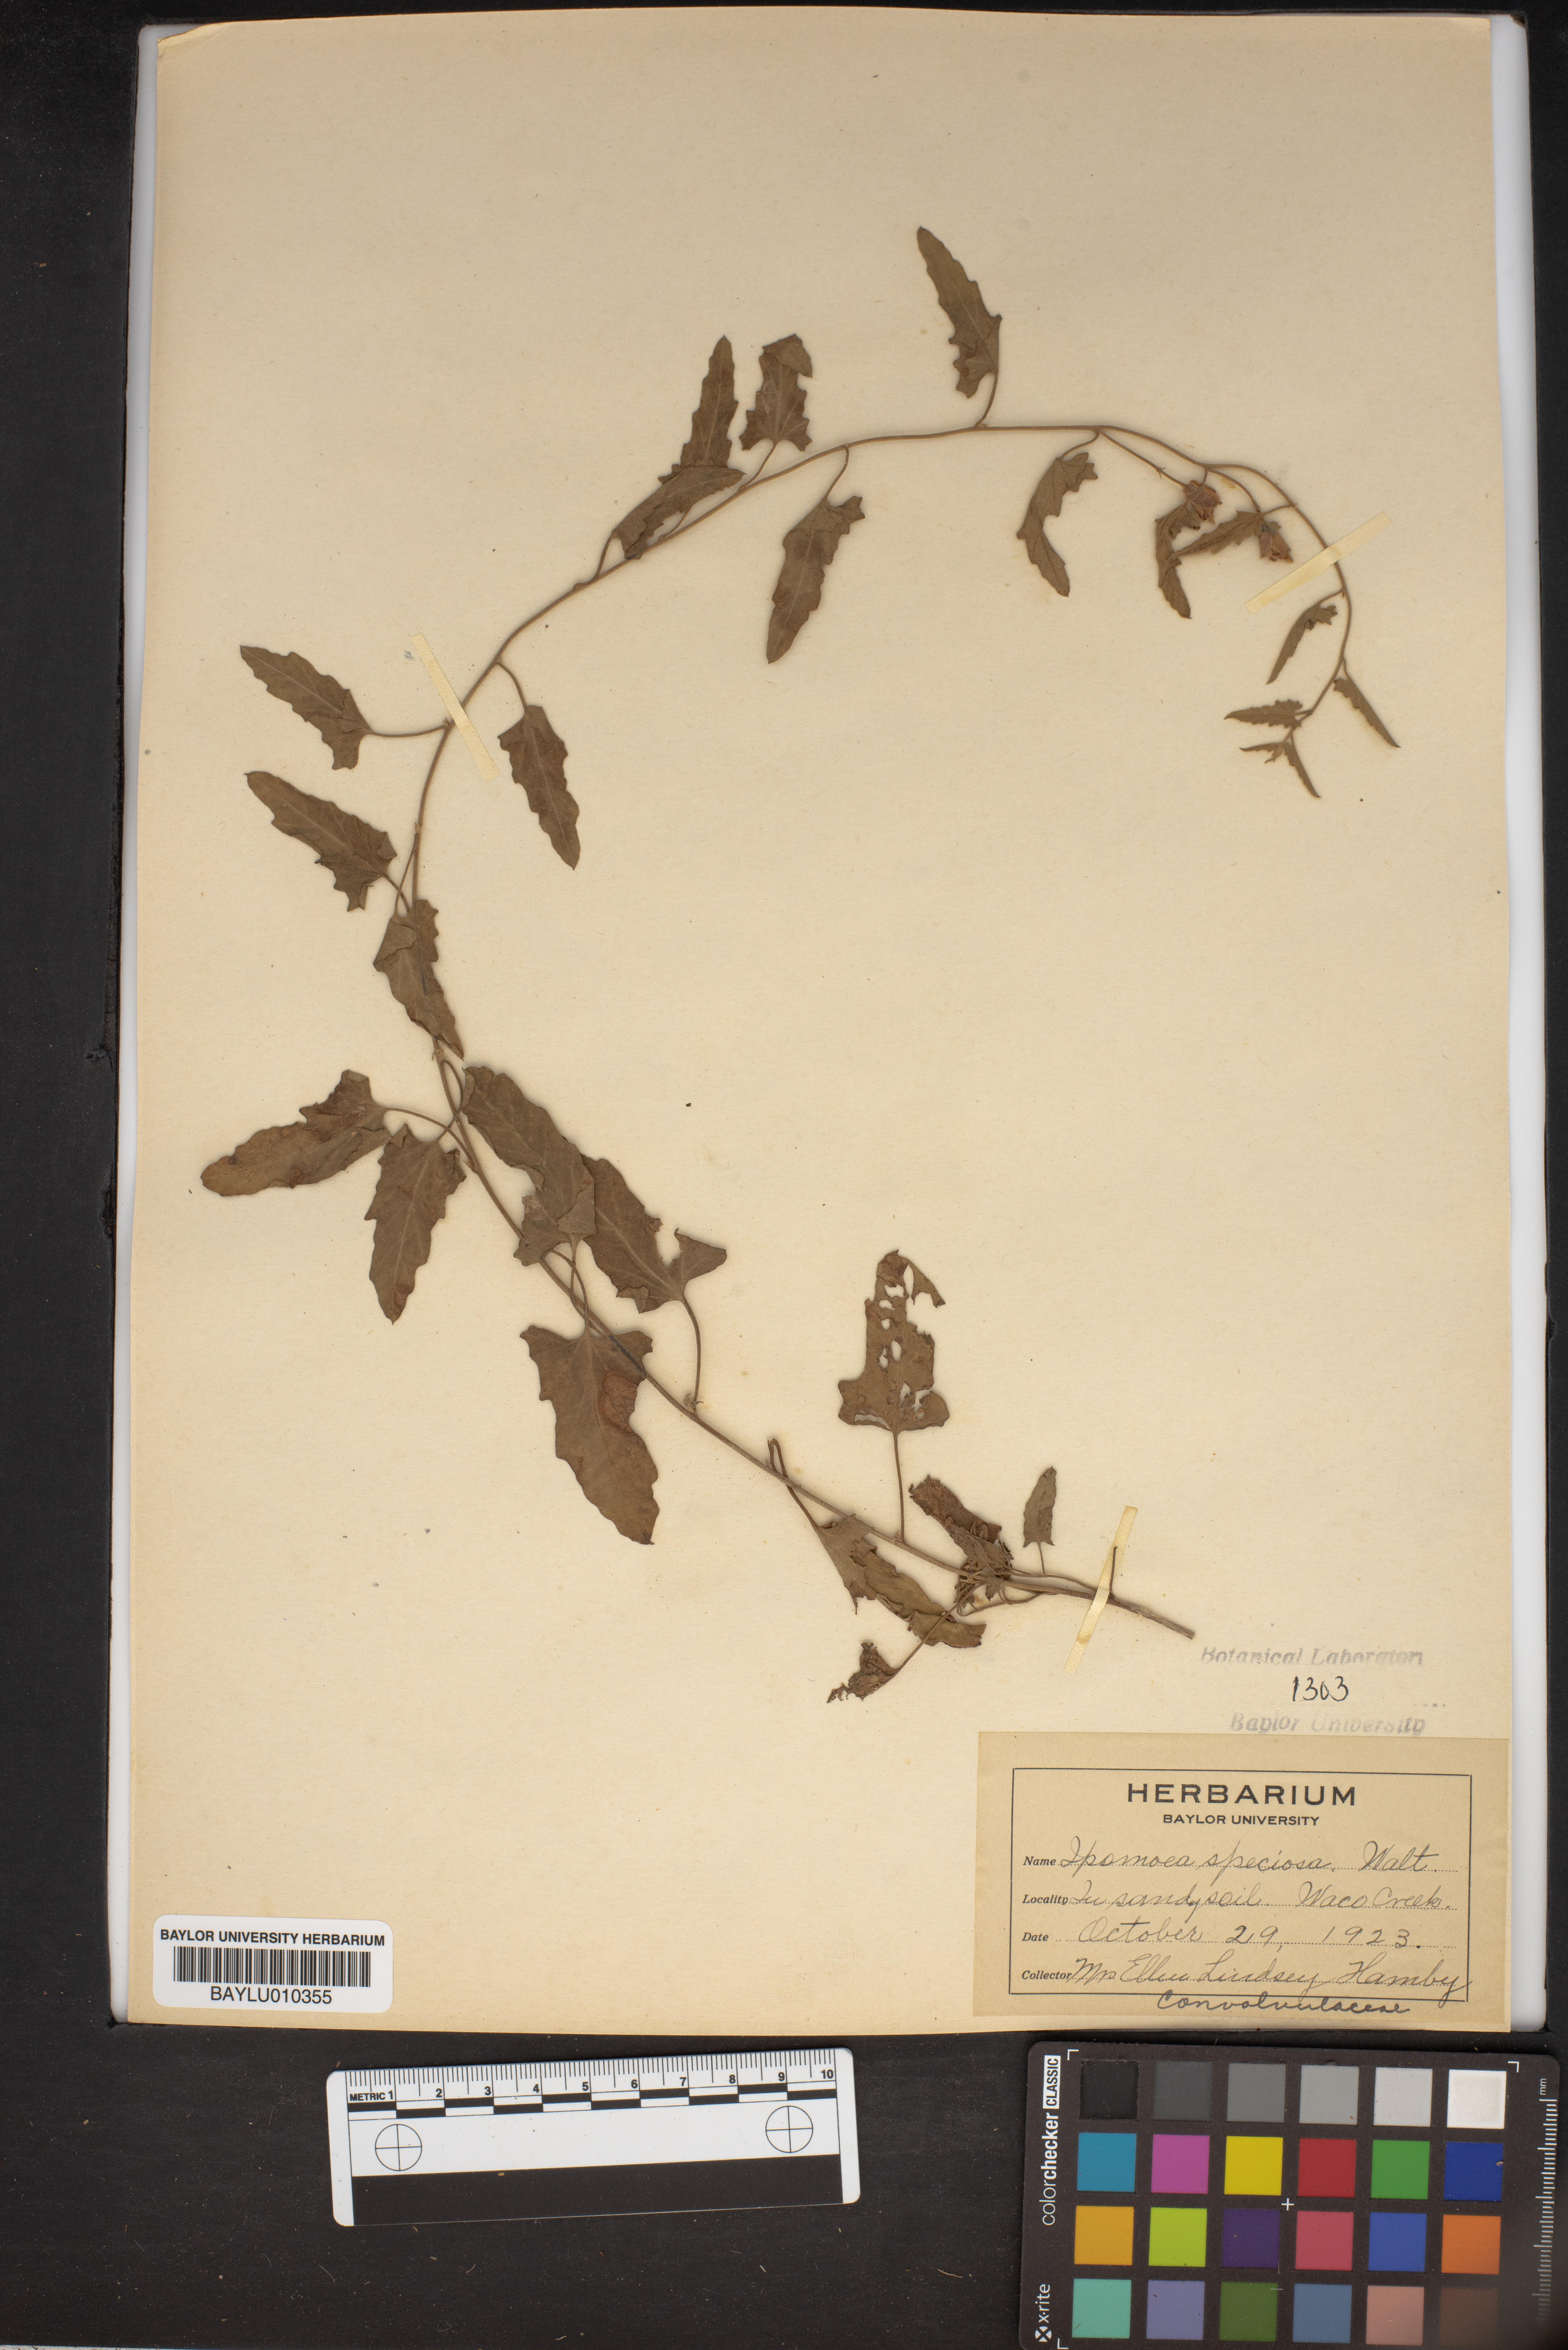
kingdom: Plantae
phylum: Tracheophyta
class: Magnoliopsida
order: Solanales
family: Convolvulaceae
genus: Ipomoea
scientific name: Ipomoea nil
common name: Japanese morning-glory
